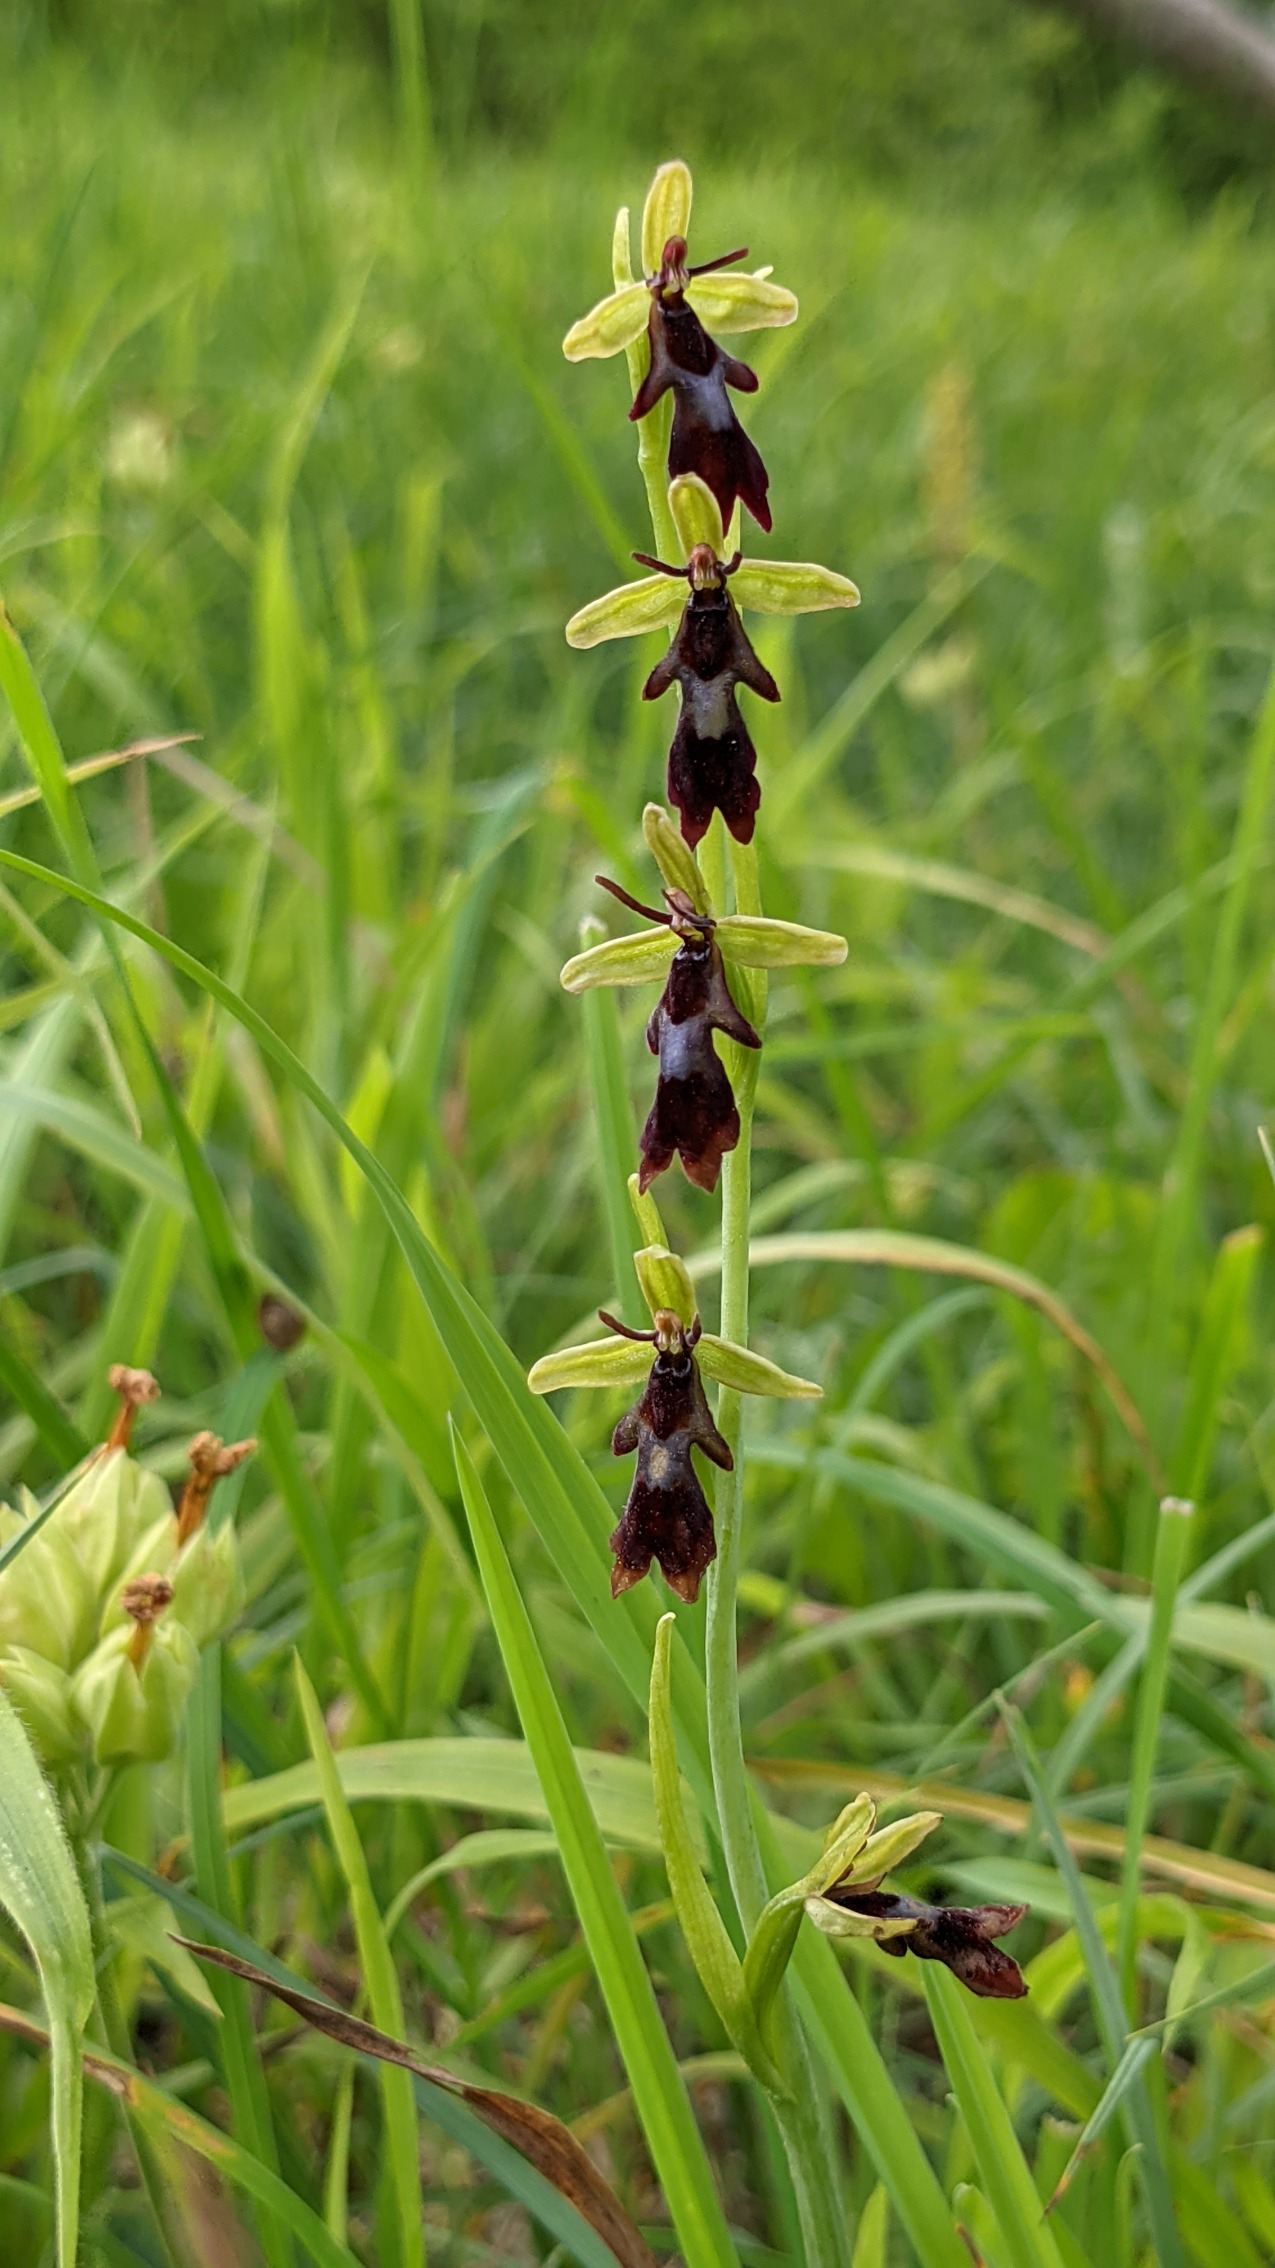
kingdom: Plantae
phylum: Tracheophyta
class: Liliopsida
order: Asparagales
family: Orchidaceae
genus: Ophrys
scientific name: Ophrys insectifera
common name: Flueblomst
